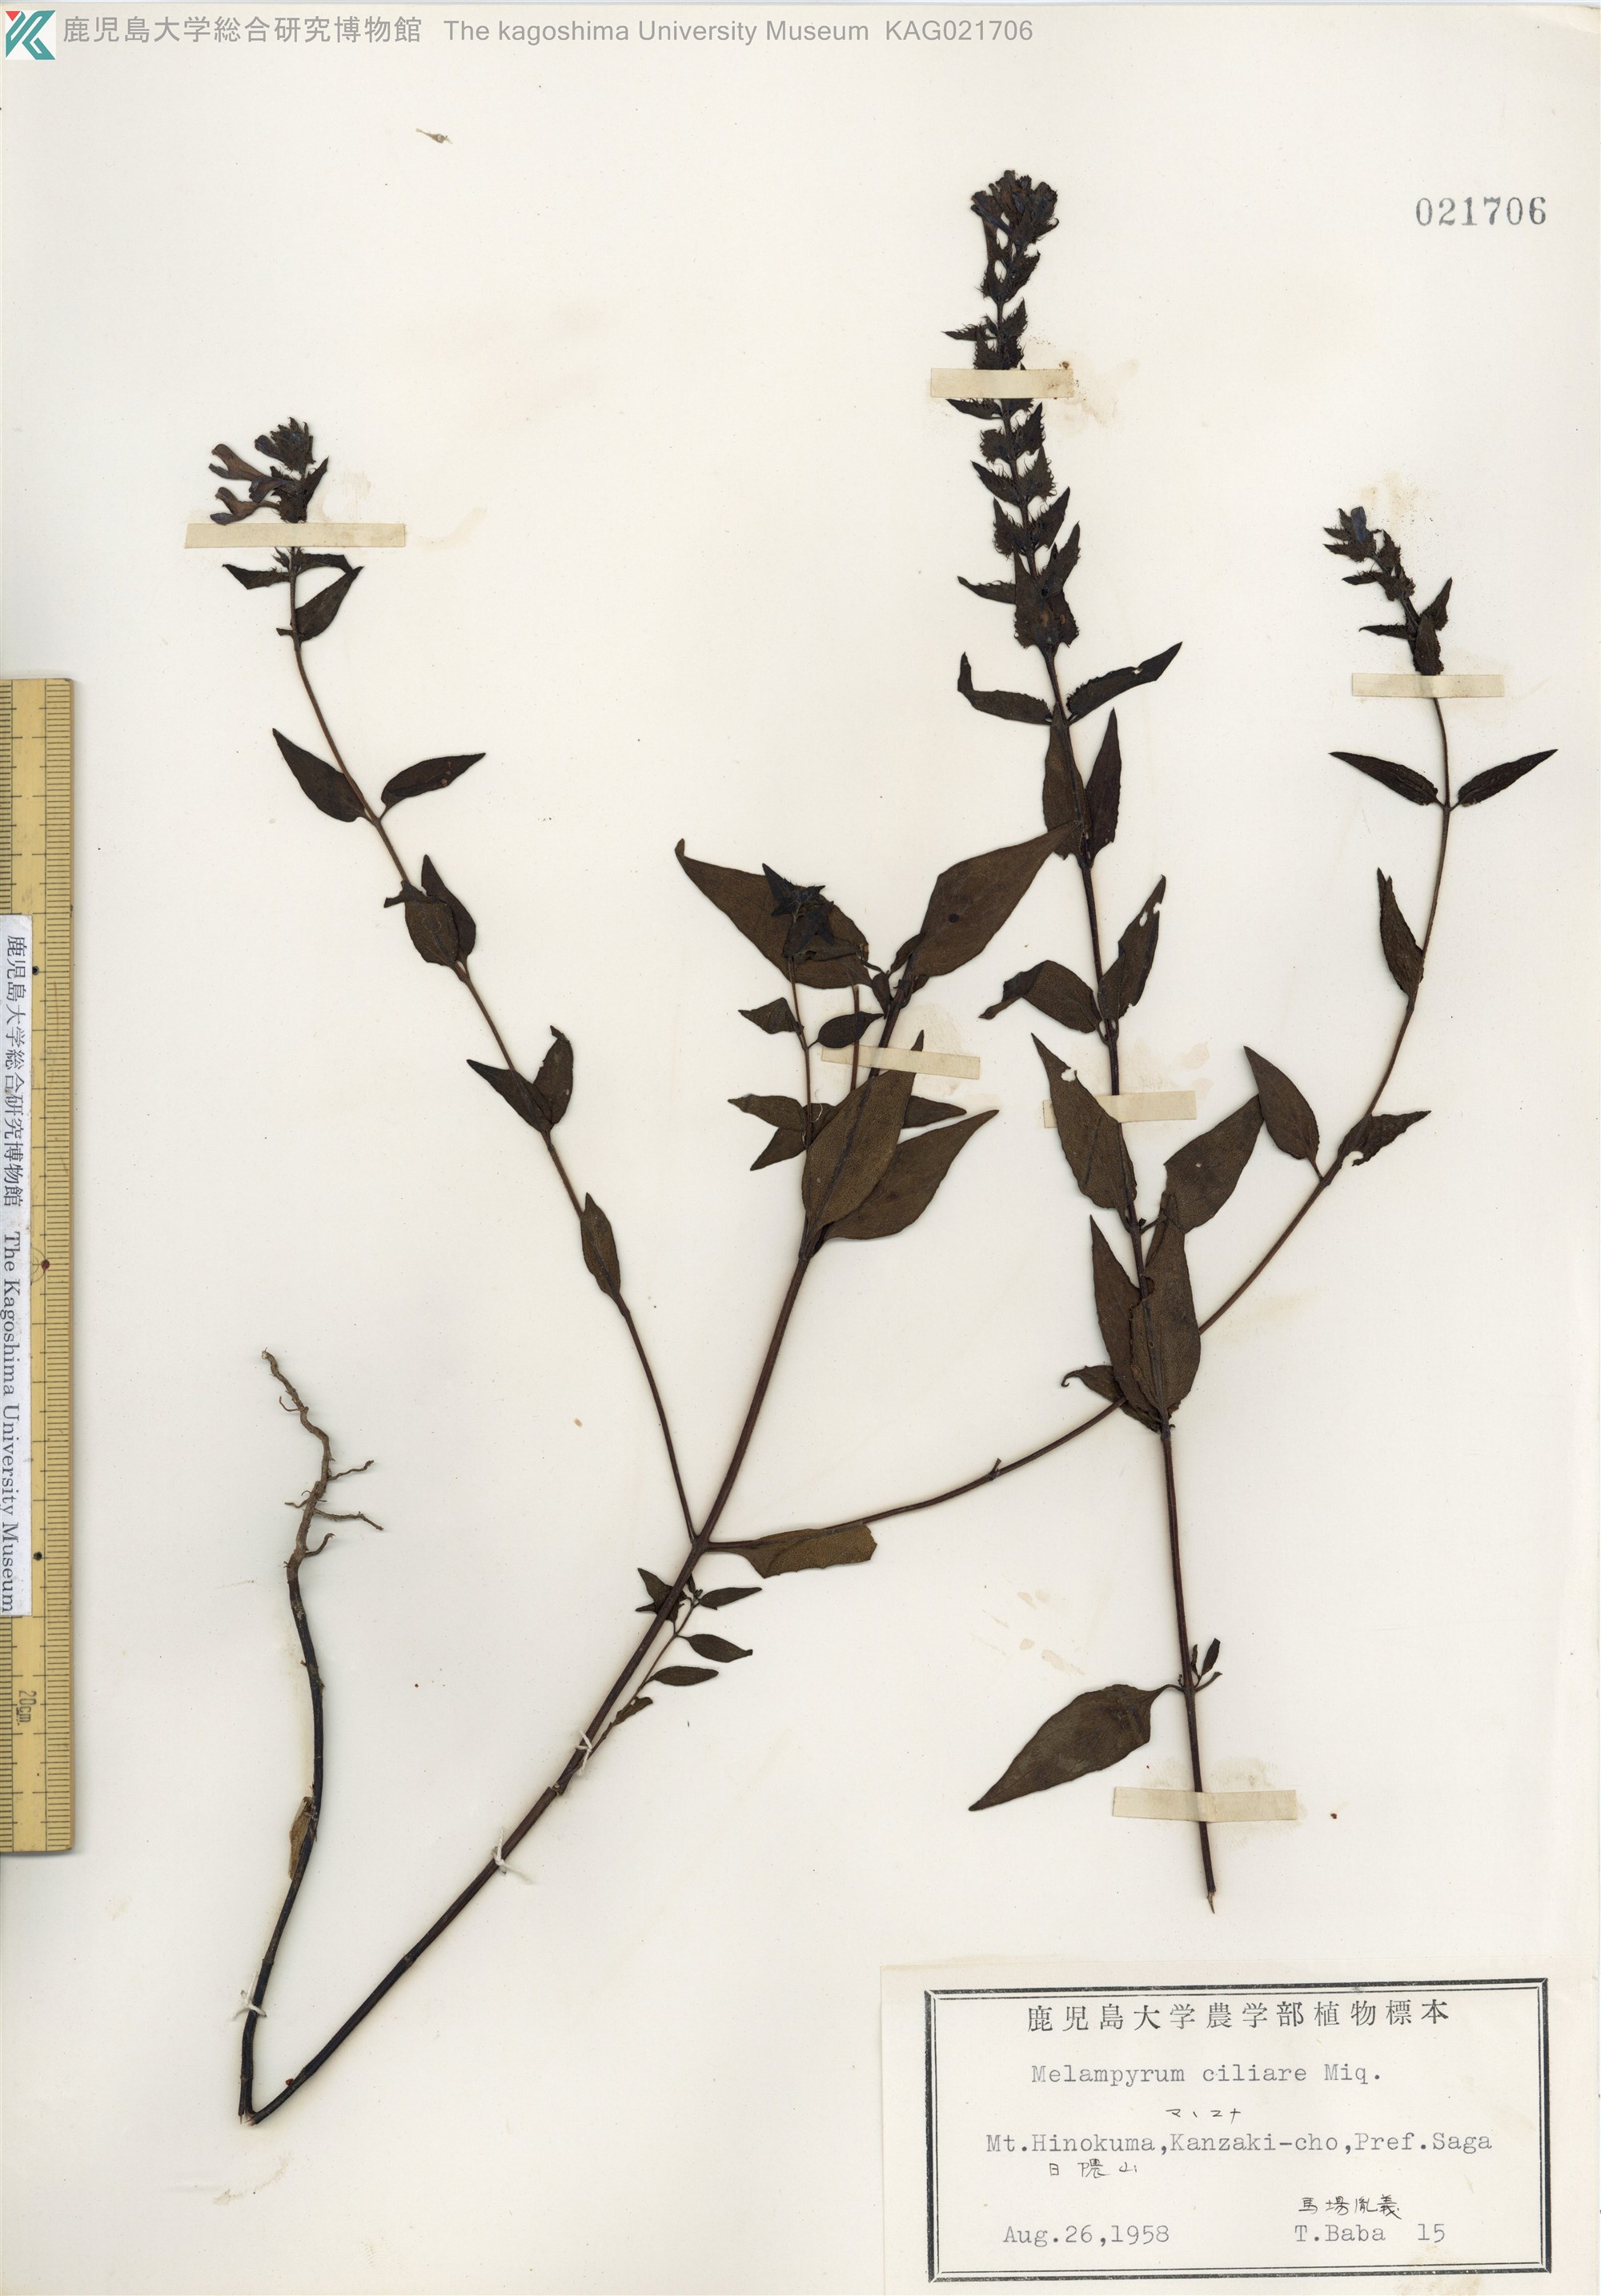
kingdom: Plantae
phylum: Tracheophyta
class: Magnoliopsida
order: Lamiales
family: Orobanchaceae
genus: Melampyrum
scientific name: Melampyrum roseum
